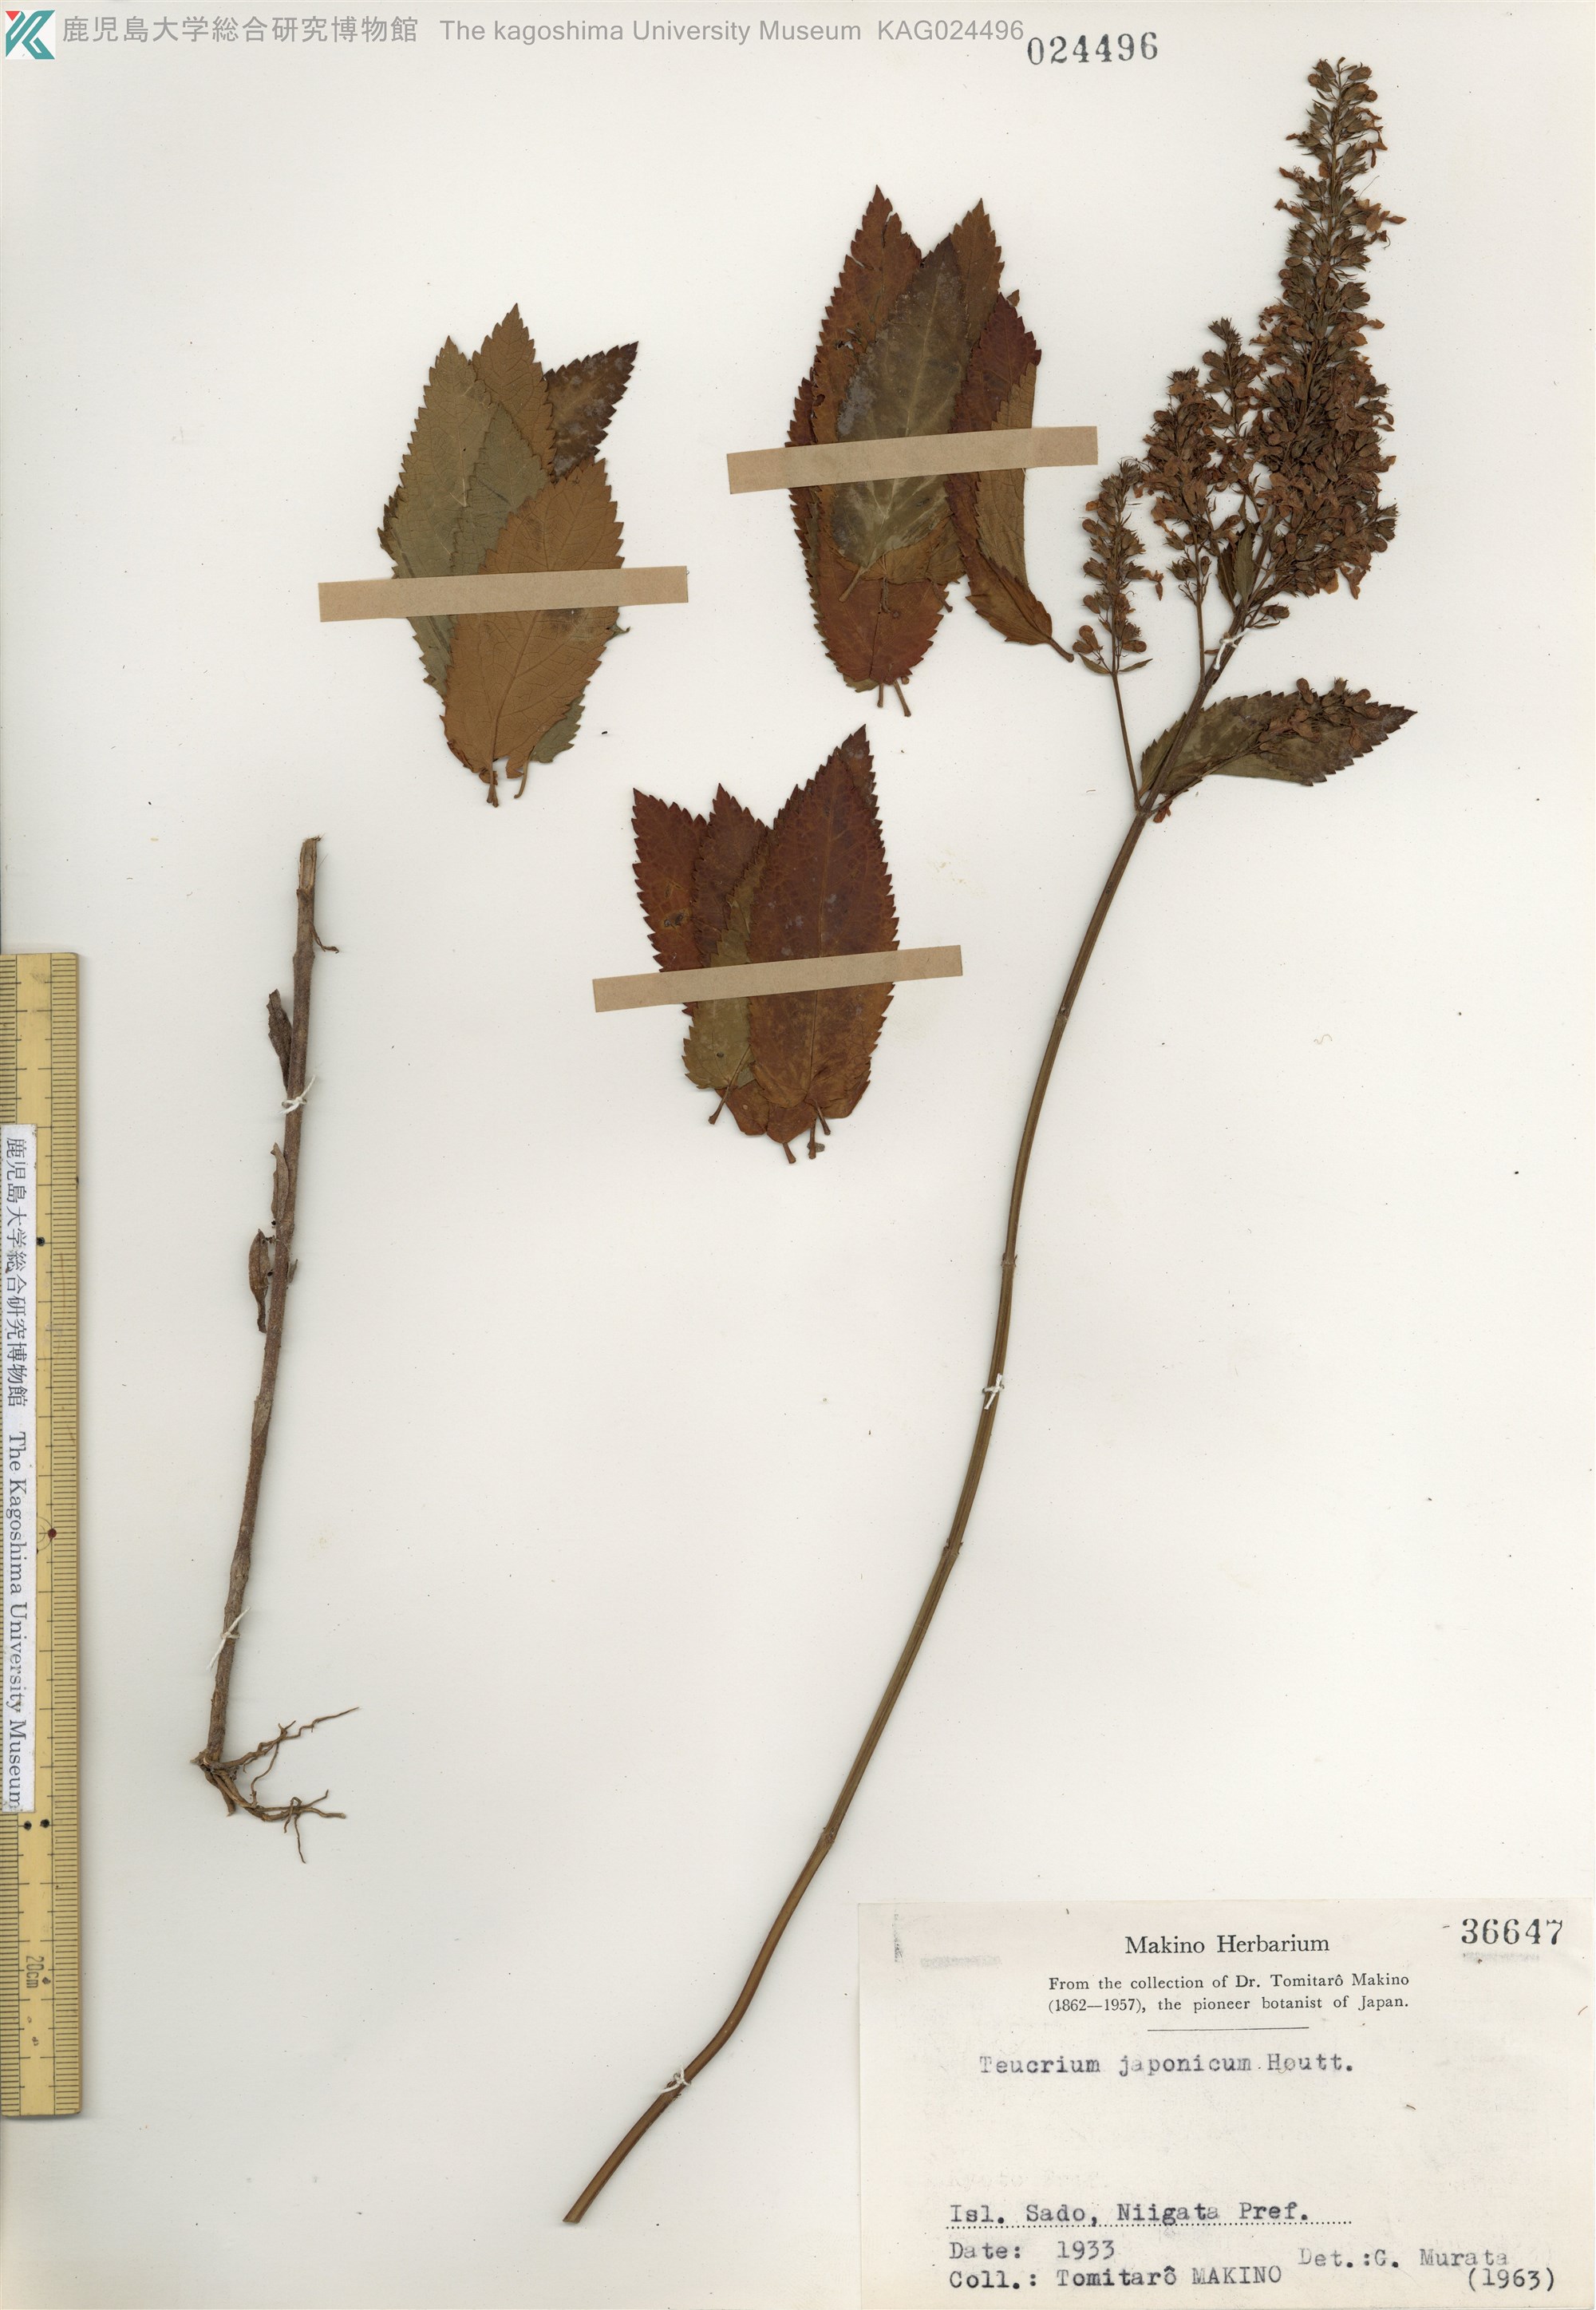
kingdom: Plantae
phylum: Tracheophyta
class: Magnoliopsida
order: Lamiales
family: Lamiaceae
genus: Teucrium
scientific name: Teucrium japonicum
